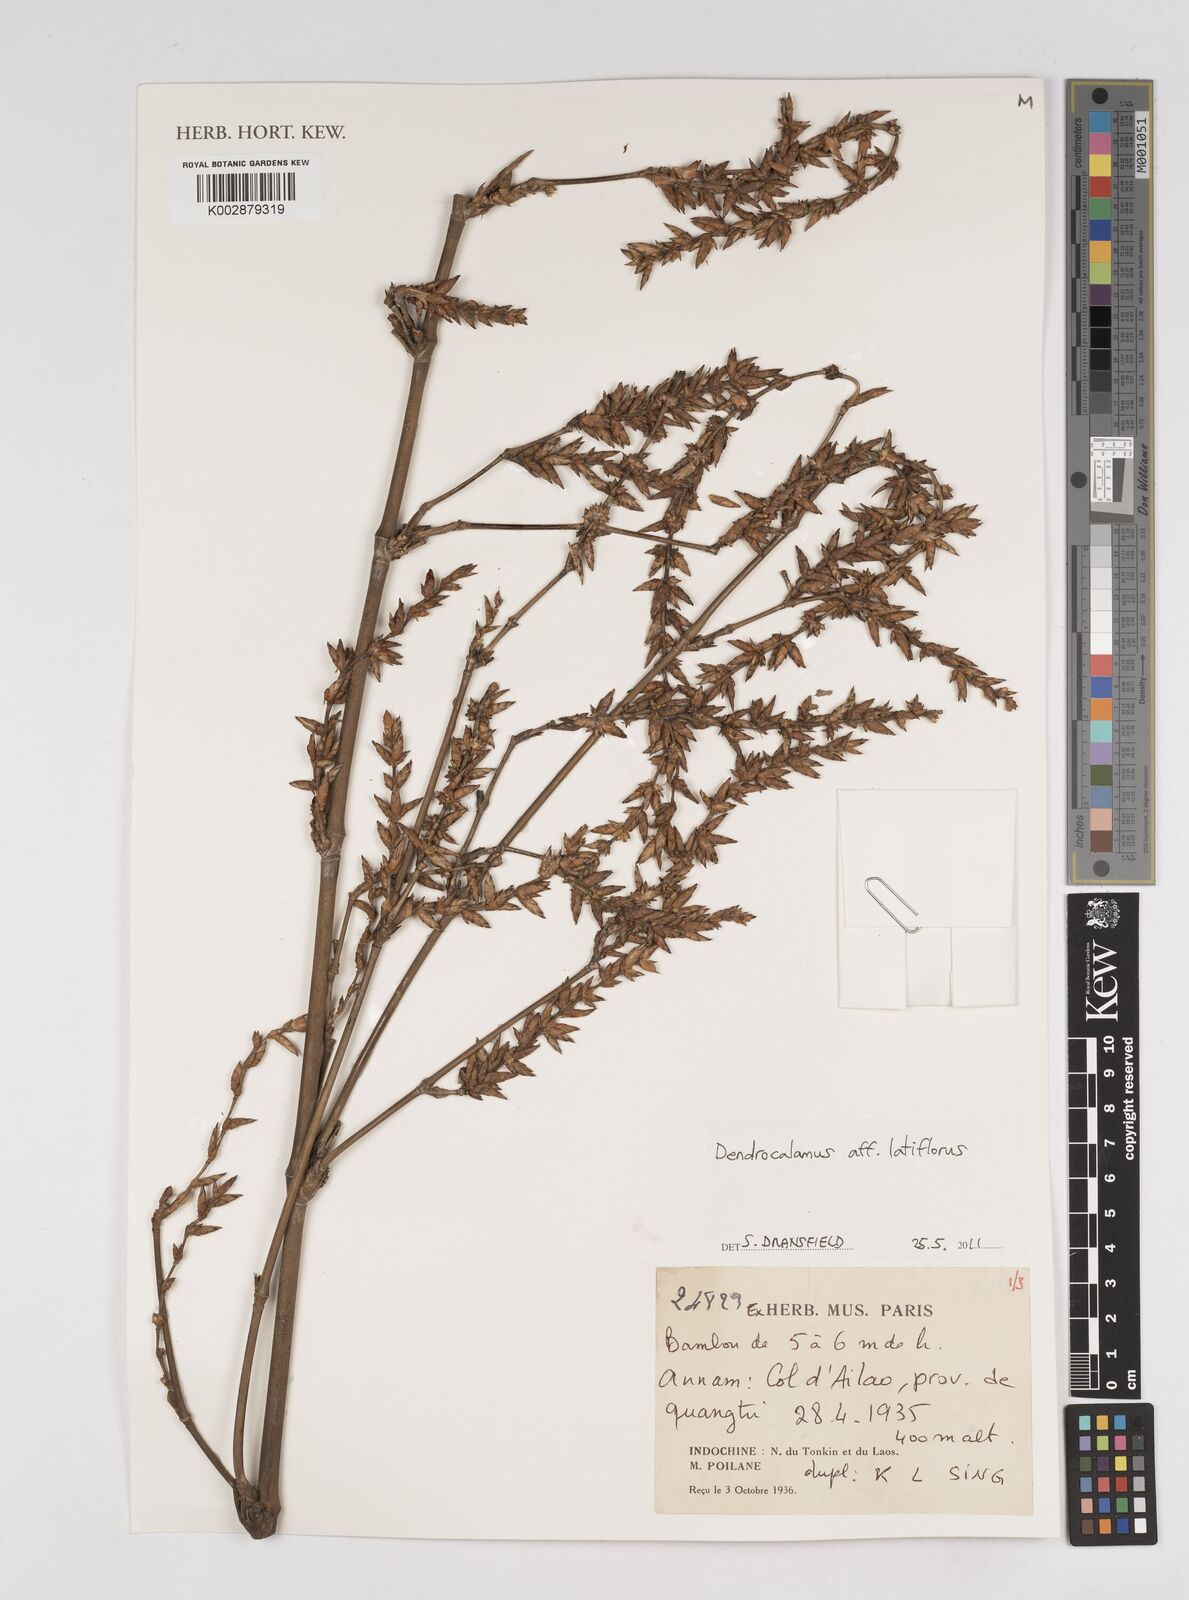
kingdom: Plantae
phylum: Tracheophyta
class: Liliopsida
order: Poales
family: Poaceae
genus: Dendrocalamus
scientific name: Dendrocalamus latiflorus
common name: Giant bamboo
